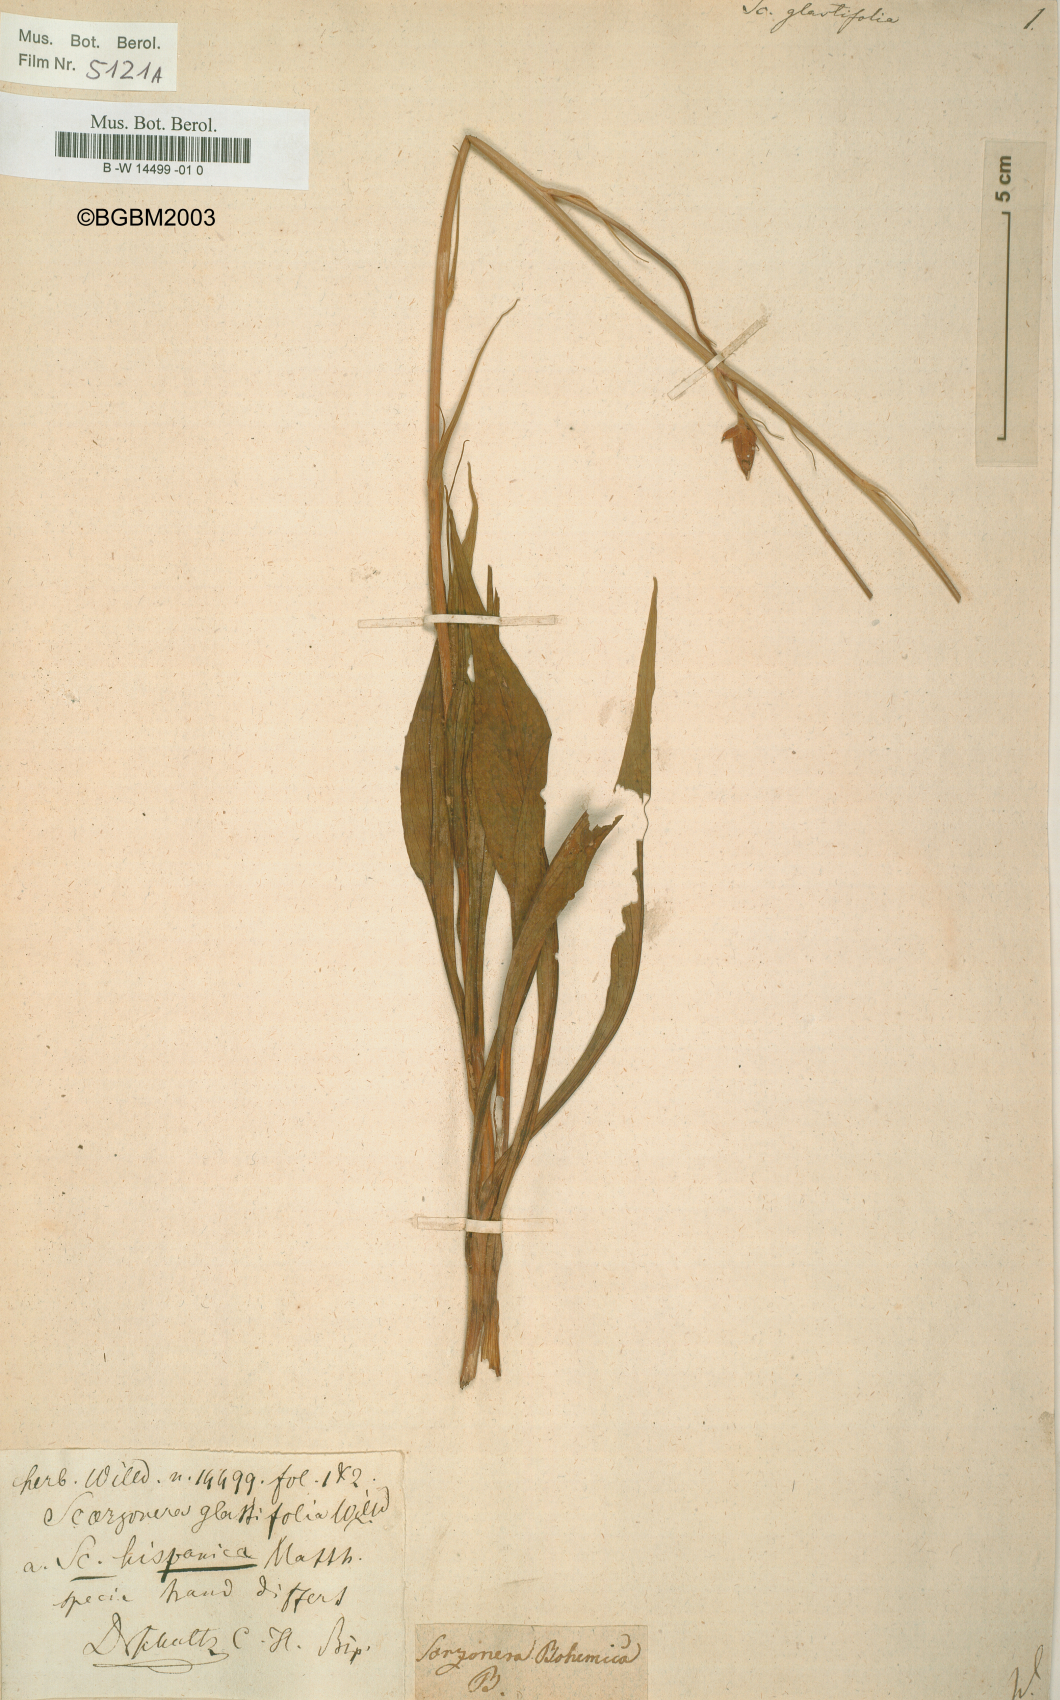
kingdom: Plantae
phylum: Tracheophyta
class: Magnoliopsida
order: Asterales
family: Asteraceae
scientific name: Asteraceae
